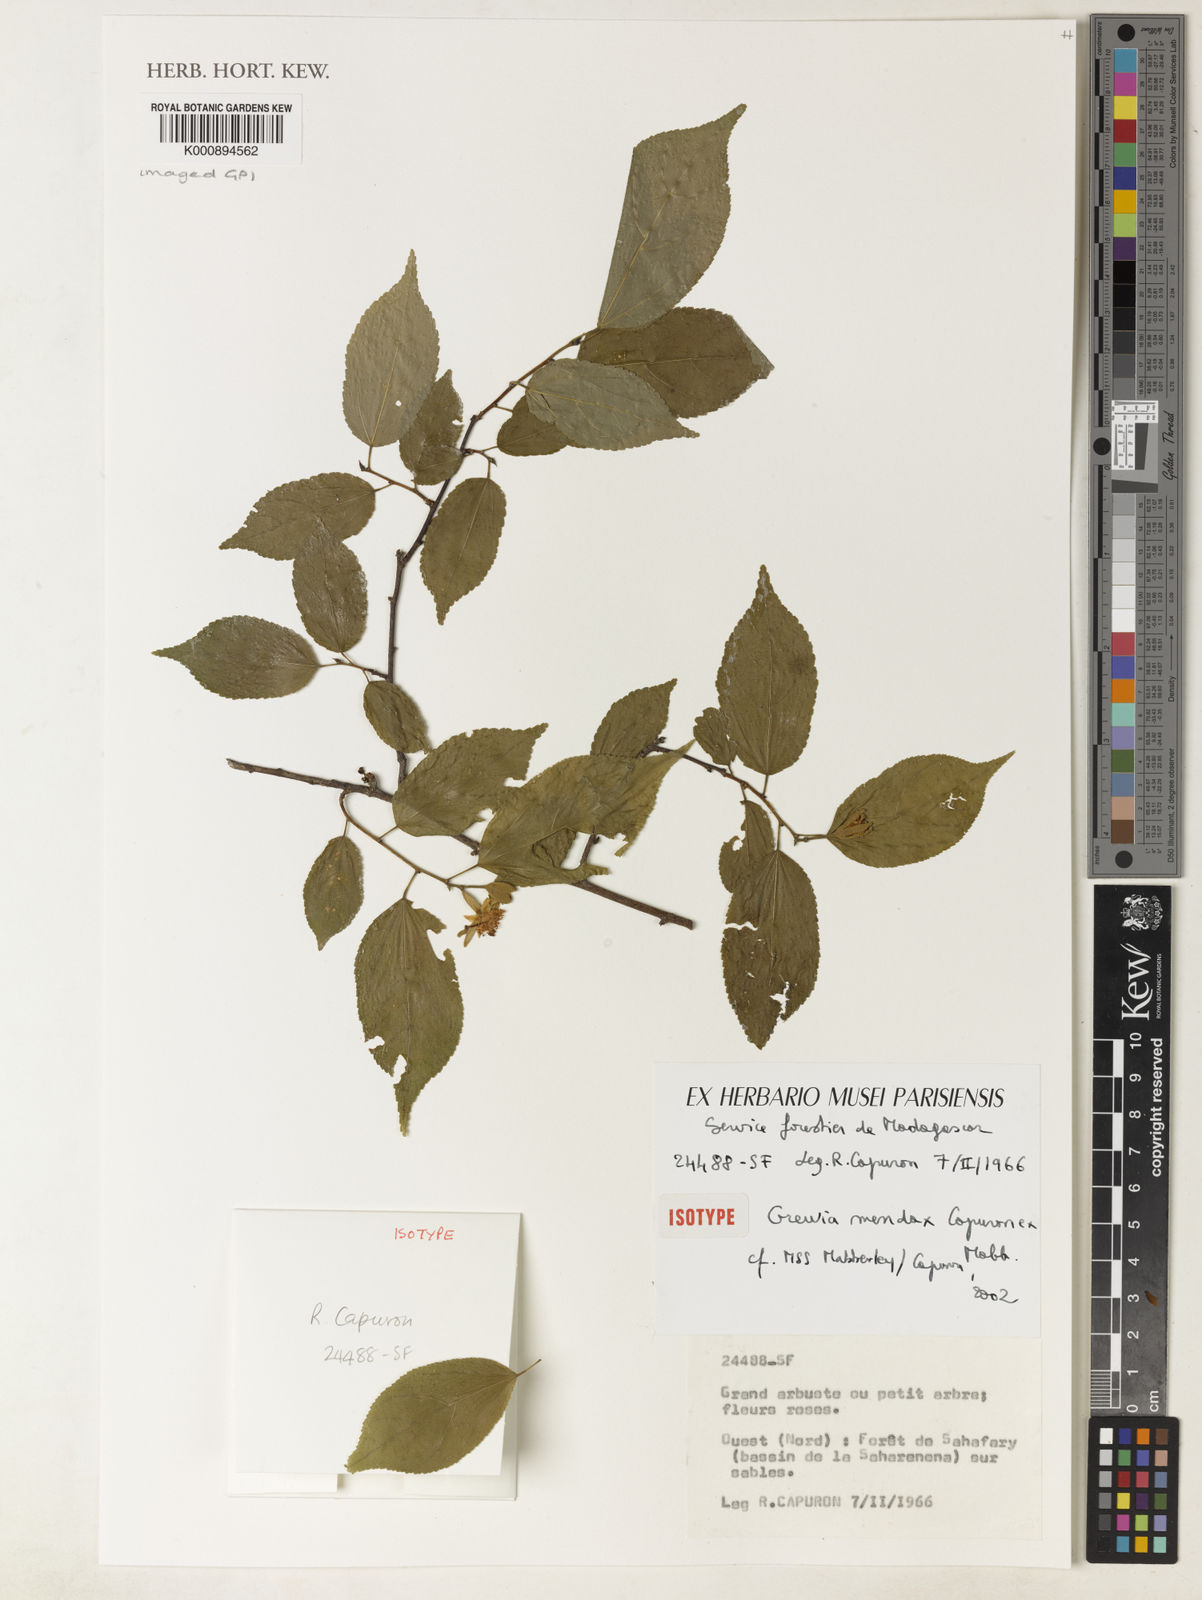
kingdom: Plantae
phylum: Tracheophyta
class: Magnoliopsida
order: Malvales
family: Malvaceae
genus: Grewia
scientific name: Grewia
